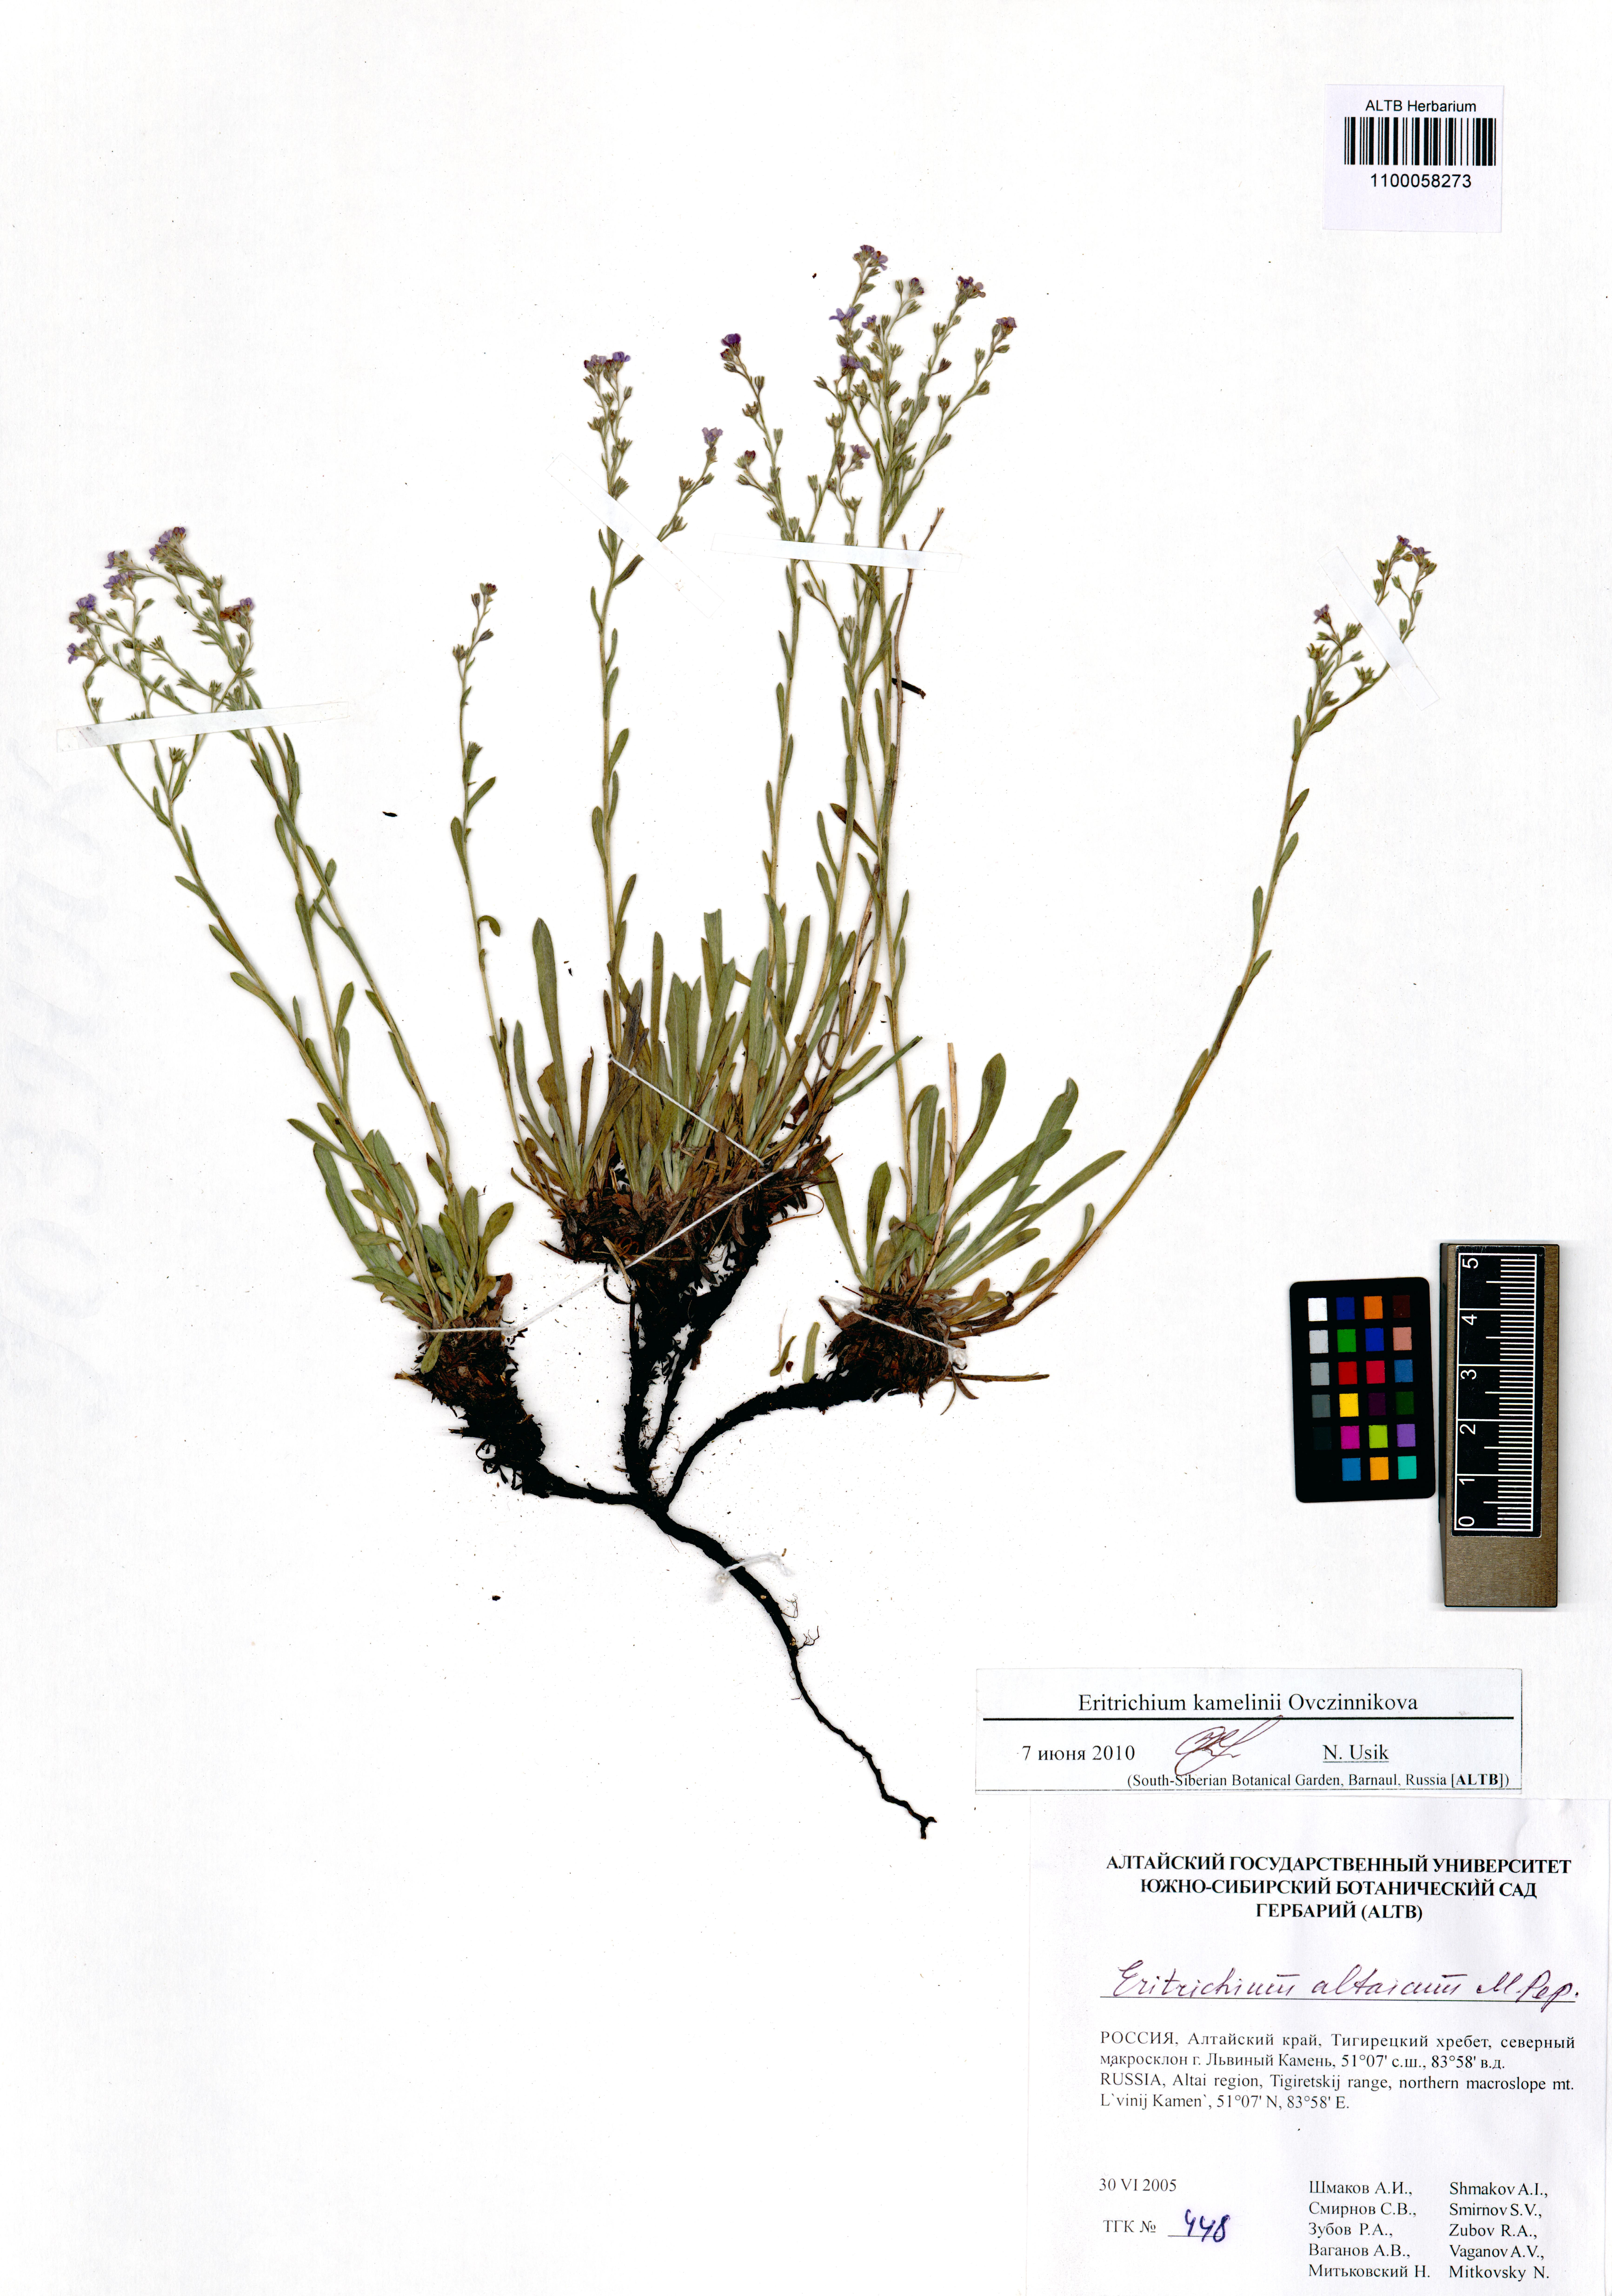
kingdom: Plantae
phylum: Tracheophyta
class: Magnoliopsida
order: Boraginales
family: Boraginaceae
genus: Eritrichium
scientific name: Eritrichium kamelinii
